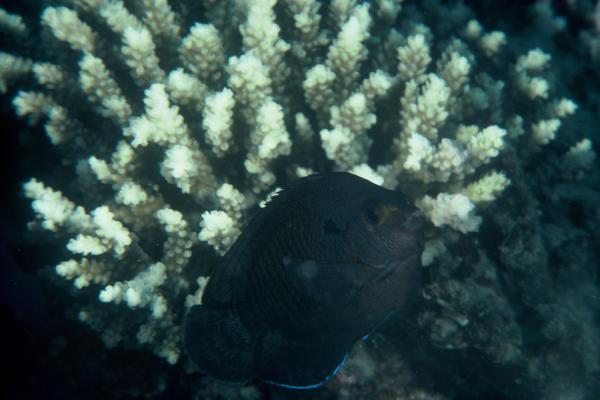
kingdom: Animalia
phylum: Chordata
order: Perciformes
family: Pomacanthidae
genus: Centropyge
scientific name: Centropyge multispinis
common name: Many-spined angelfish
